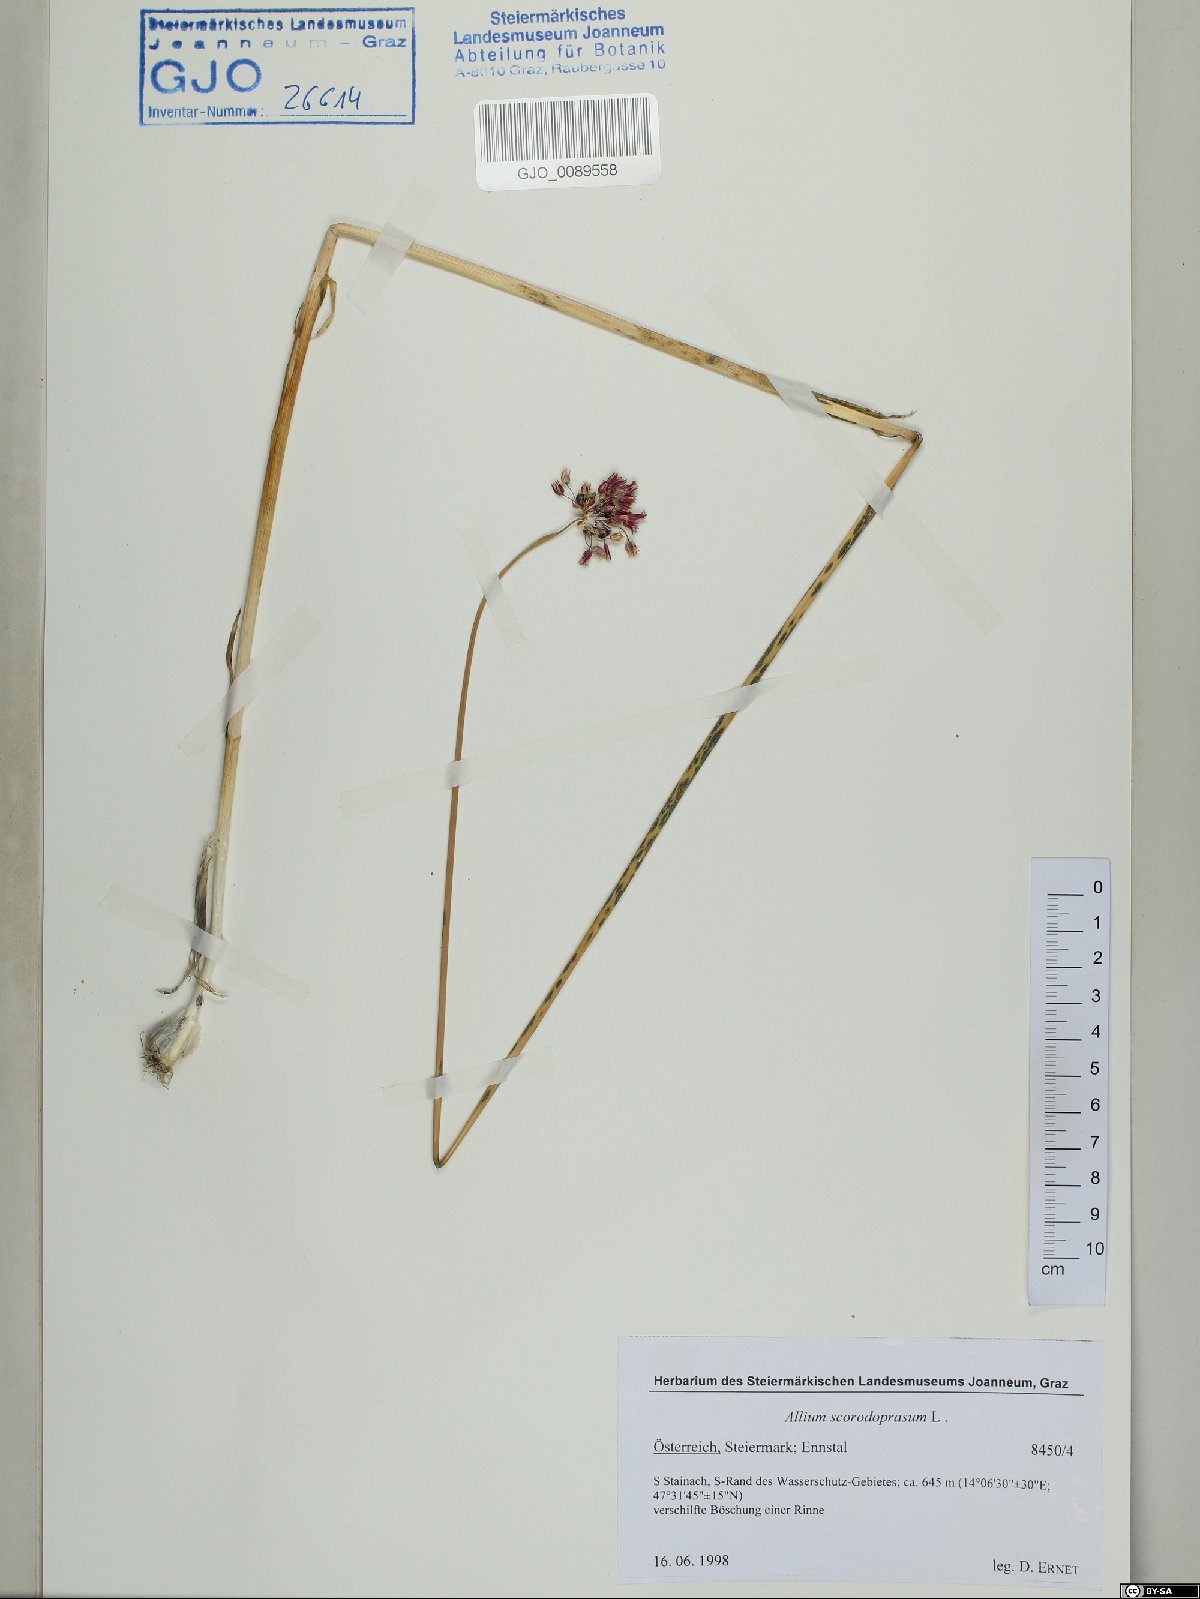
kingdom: Plantae
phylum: Tracheophyta
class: Liliopsida
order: Asparagales
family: Amaryllidaceae
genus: Allium
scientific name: Allium scorodoprasum
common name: Sand leek
